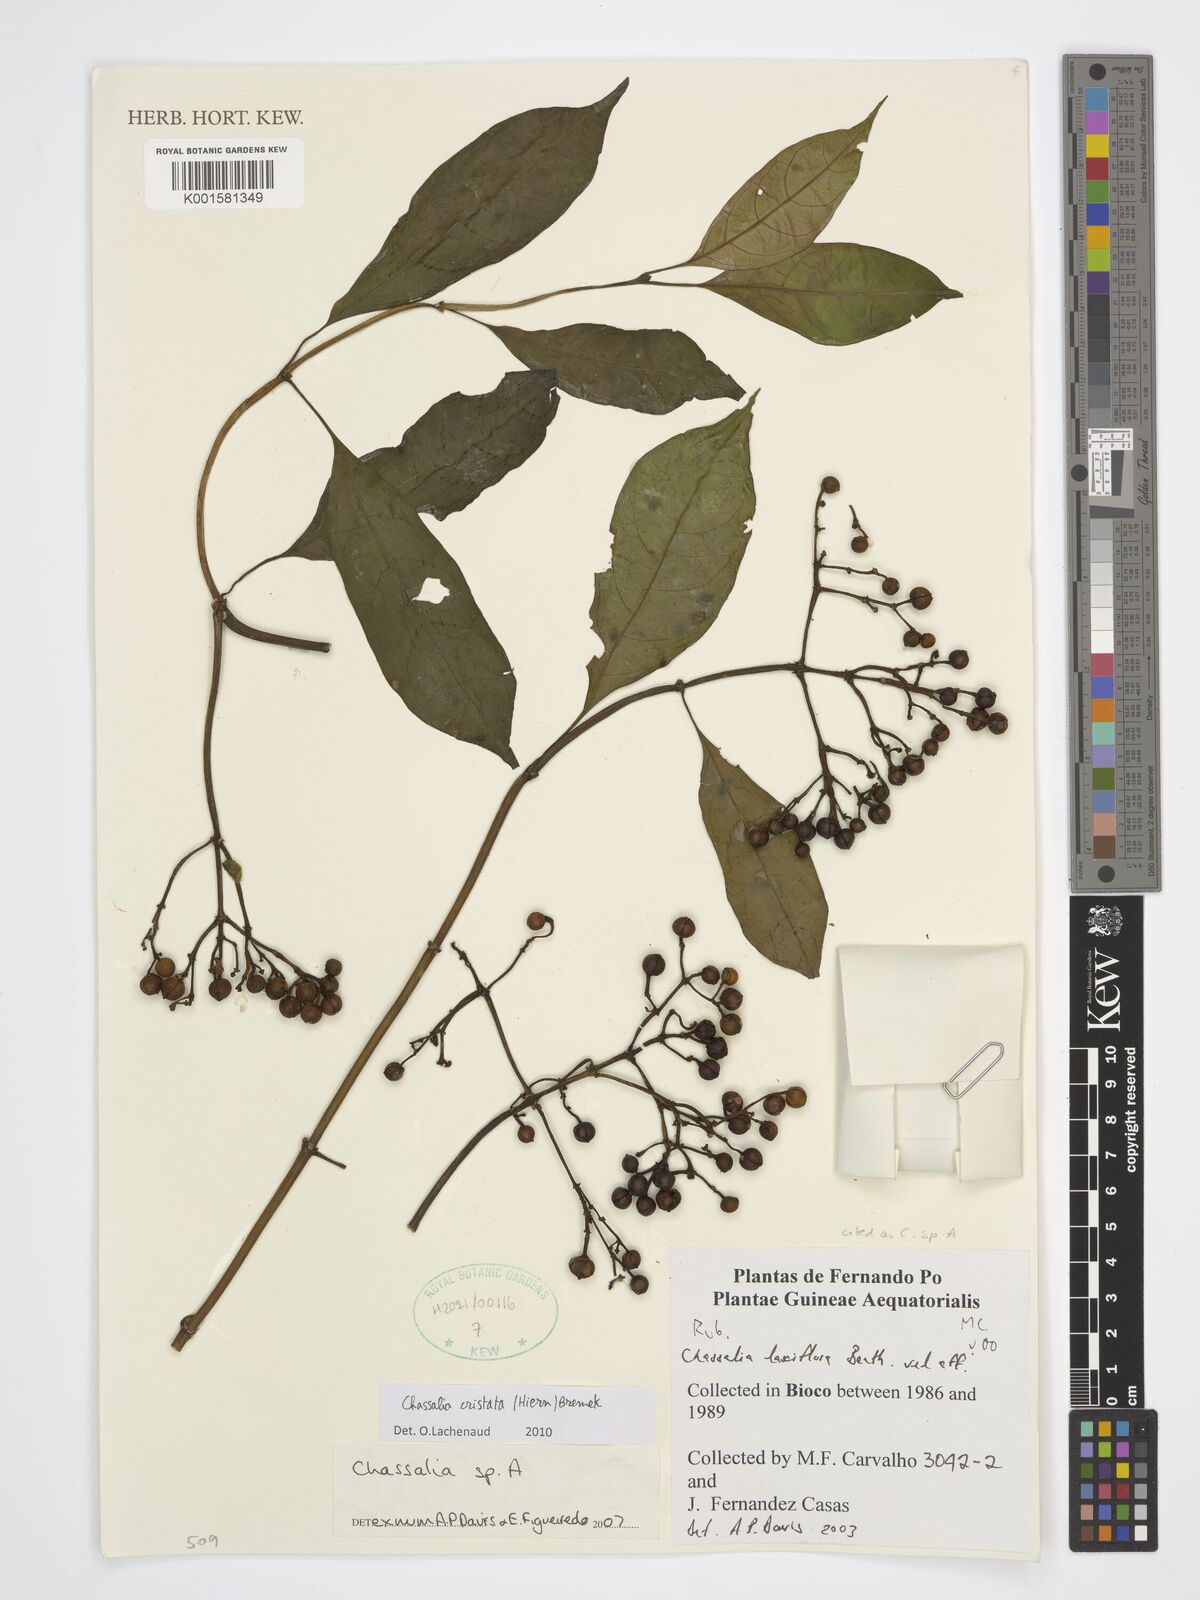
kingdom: Plantae
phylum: Tracheophyta
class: Magnoliopsida
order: Gentianales
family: Rubiaceae
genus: Chassalia
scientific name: Chassalia cristata
